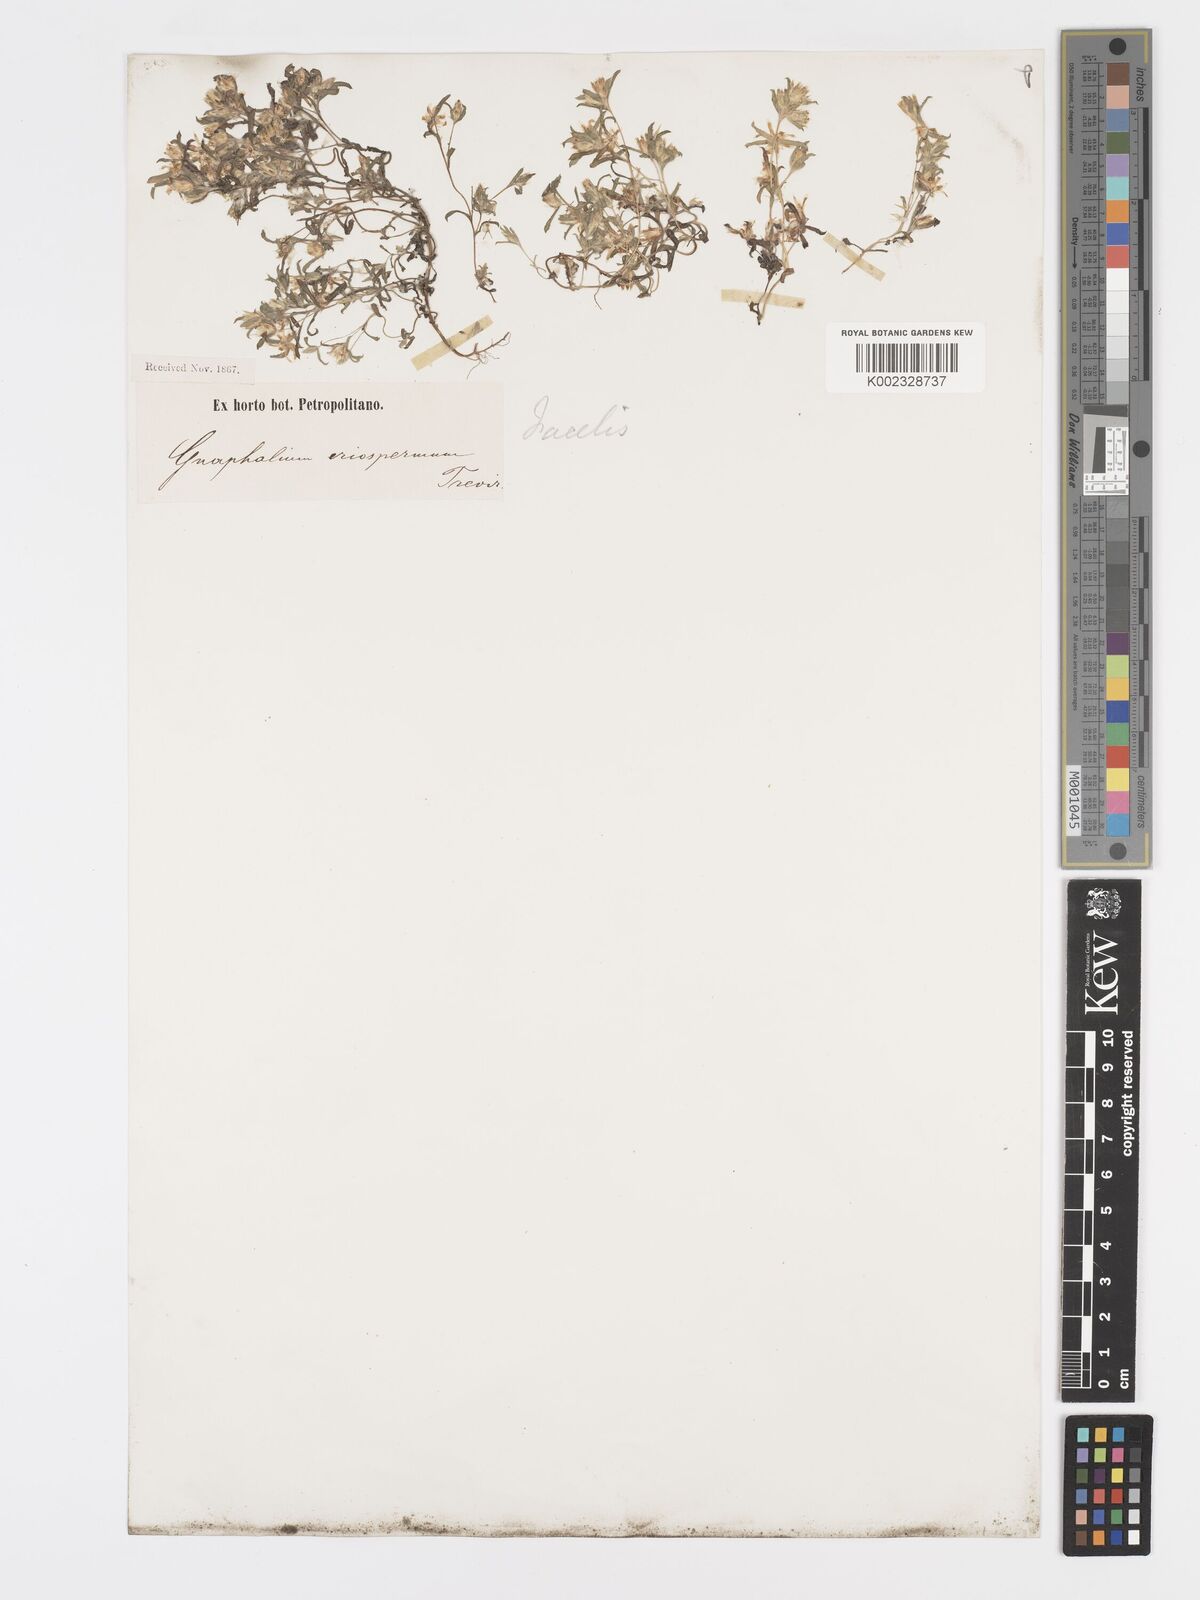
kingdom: Plantae
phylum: Tracheophyta
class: Magnoliopsida
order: Asterales
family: Asteraceae
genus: Facelis
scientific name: Facelis plumosa
